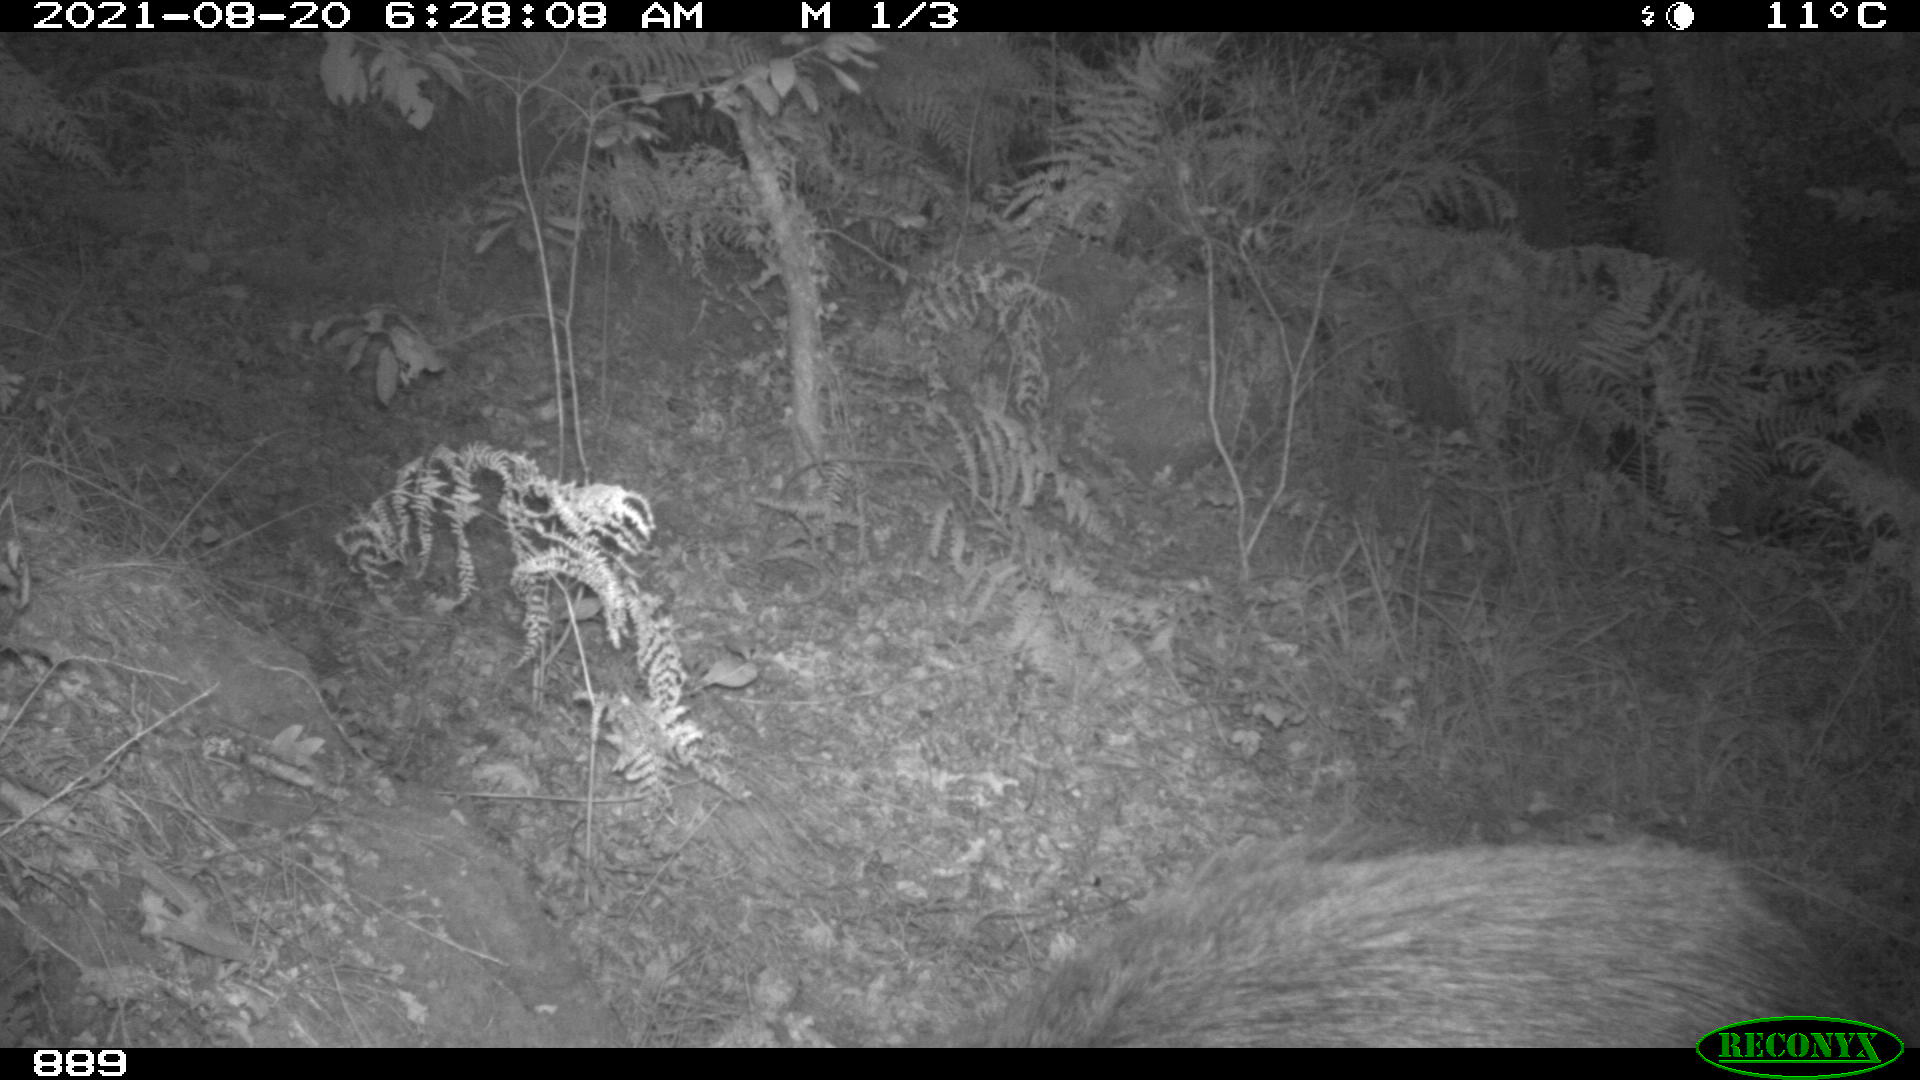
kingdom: Animalia
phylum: Chordata
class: Mammalia
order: Artiodactyla
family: Suidae
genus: Sus
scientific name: Sus scrofa
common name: Wild boar
